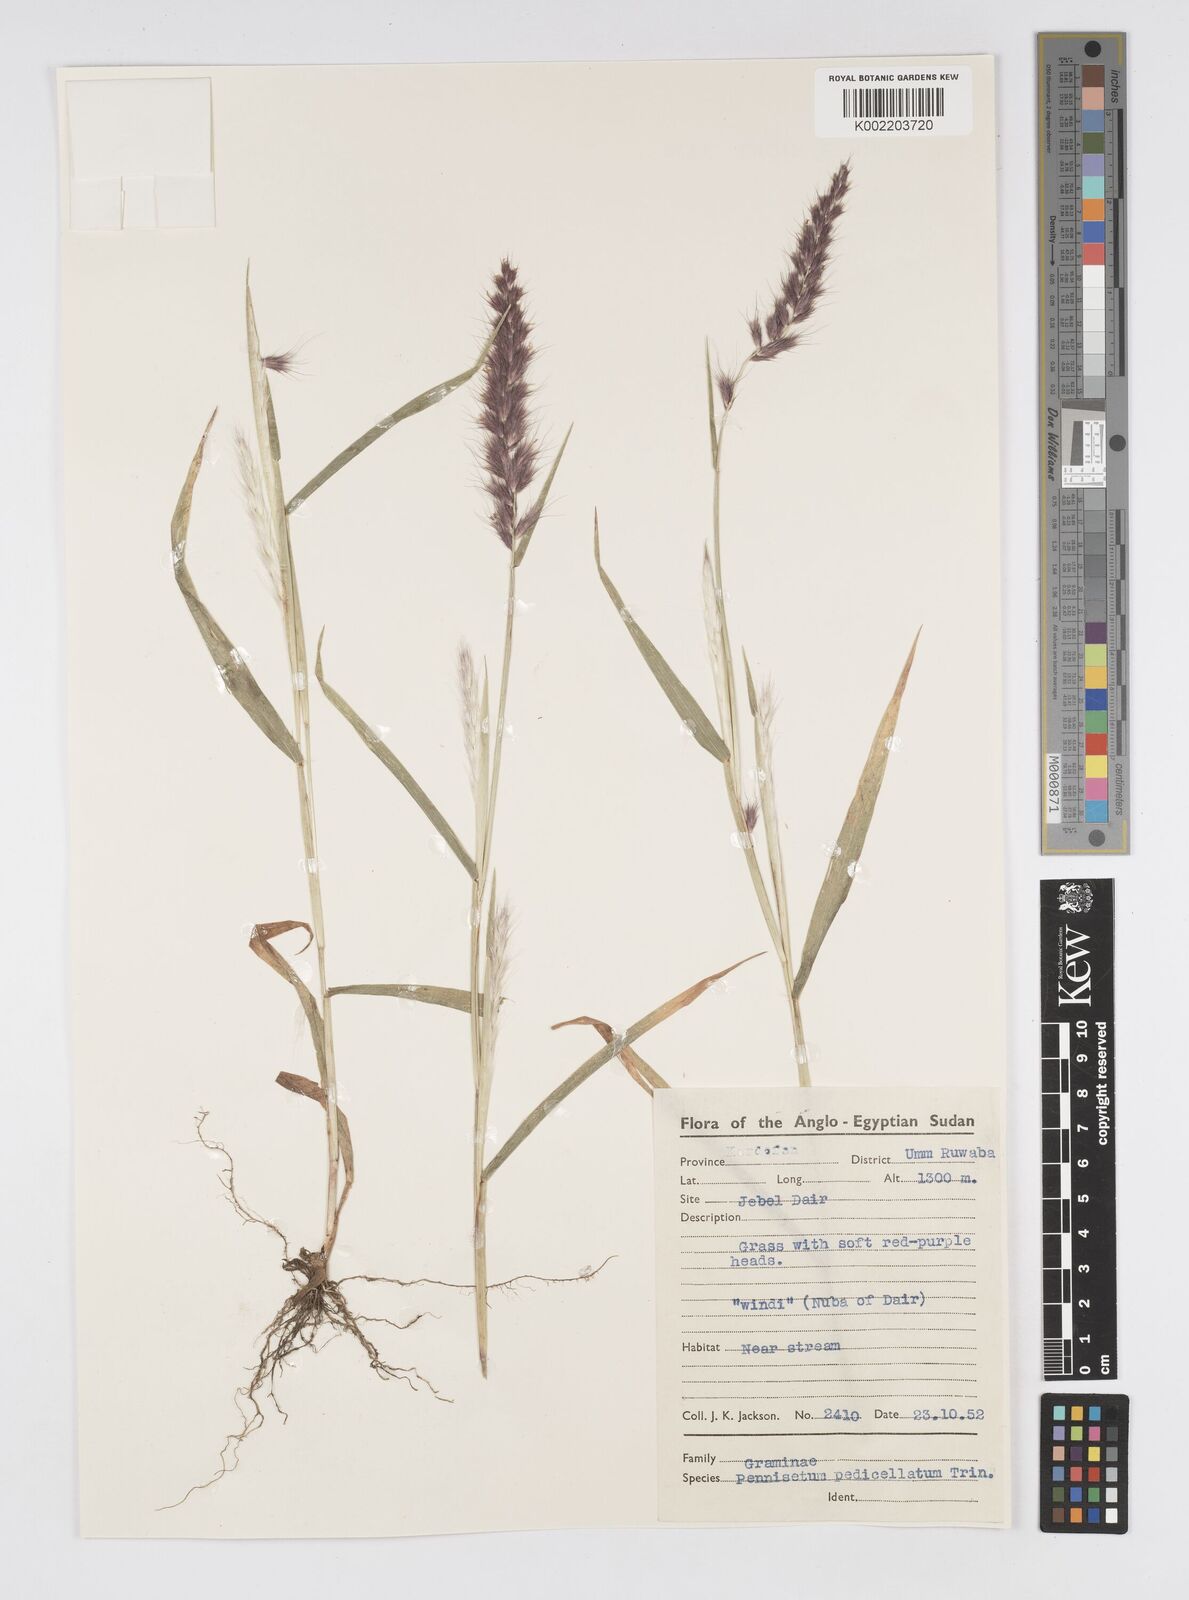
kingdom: Plantae
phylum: Tracheophyta
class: Liliopsida
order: Poales
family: Poaceae
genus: Cenchrus
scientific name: Cenchrus pedicellatus
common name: Hairy fountain grass
